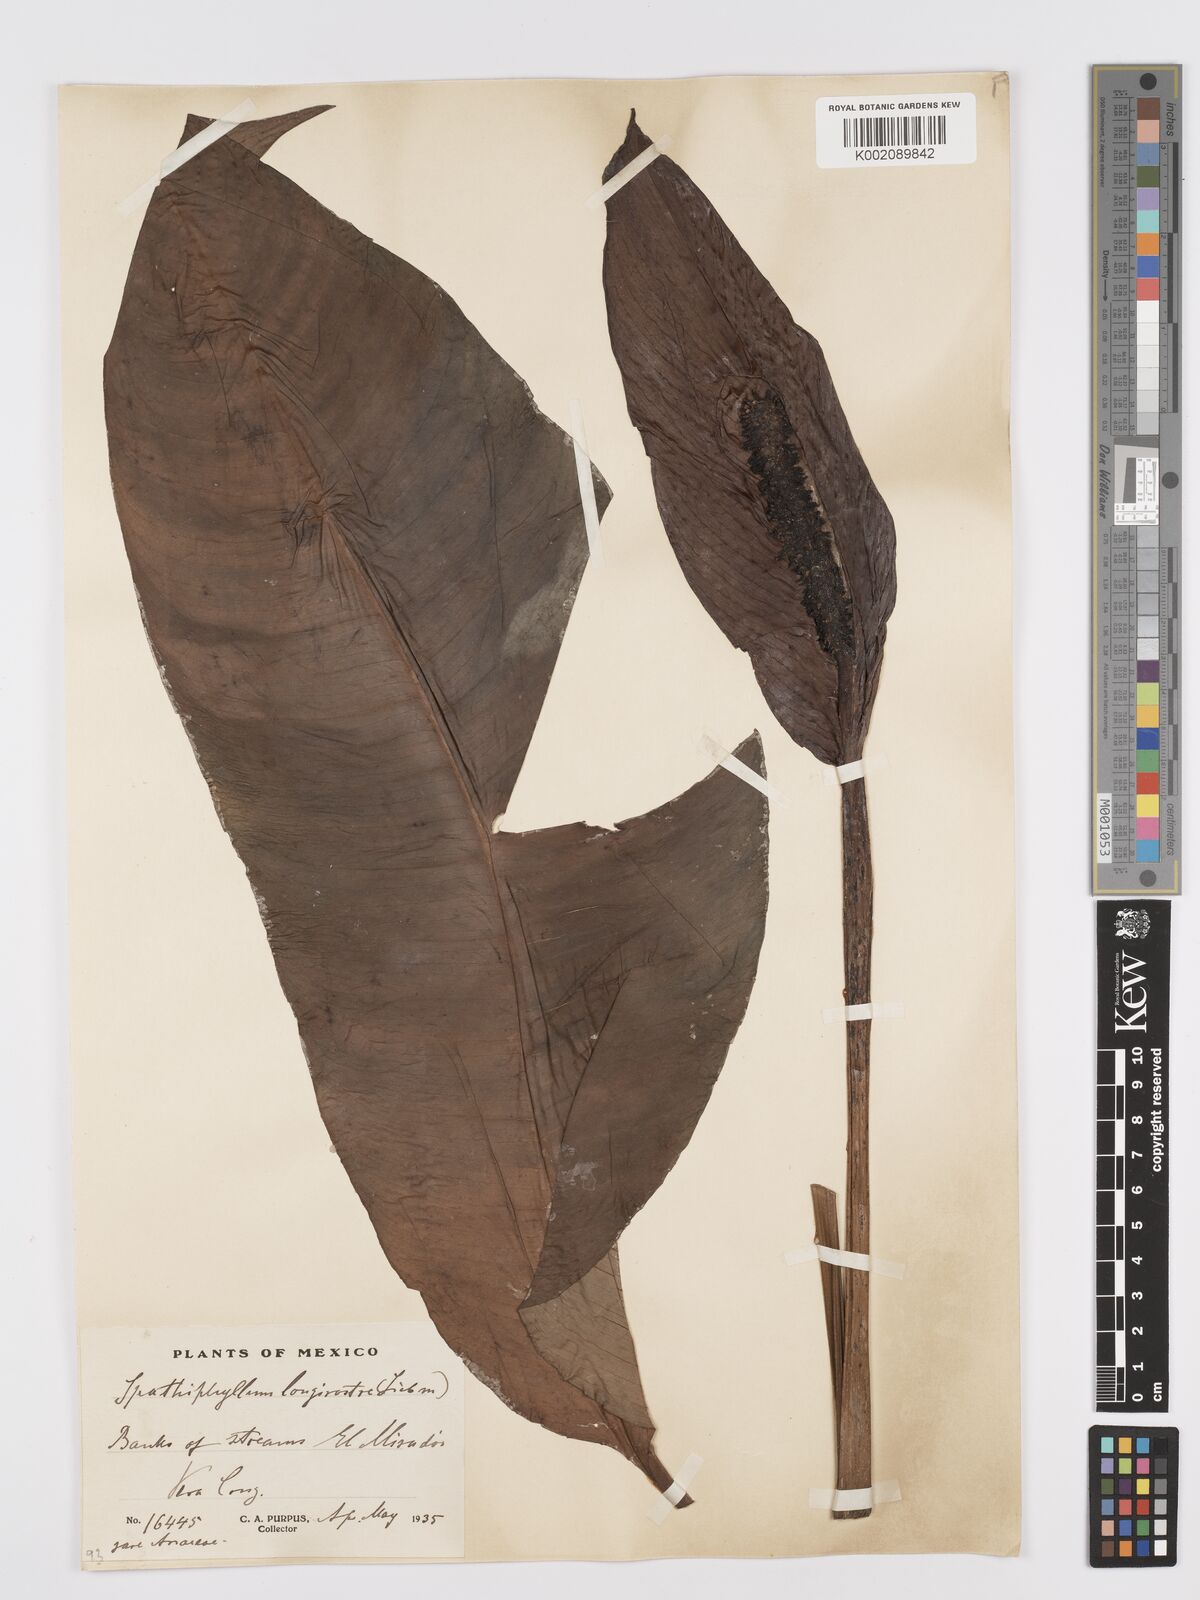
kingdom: Plantae
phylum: Tracheophyta
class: Liliopsida
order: Alismatales
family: Araceae
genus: Spathiphyllum
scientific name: Spathiphyllum cochlearispathum
